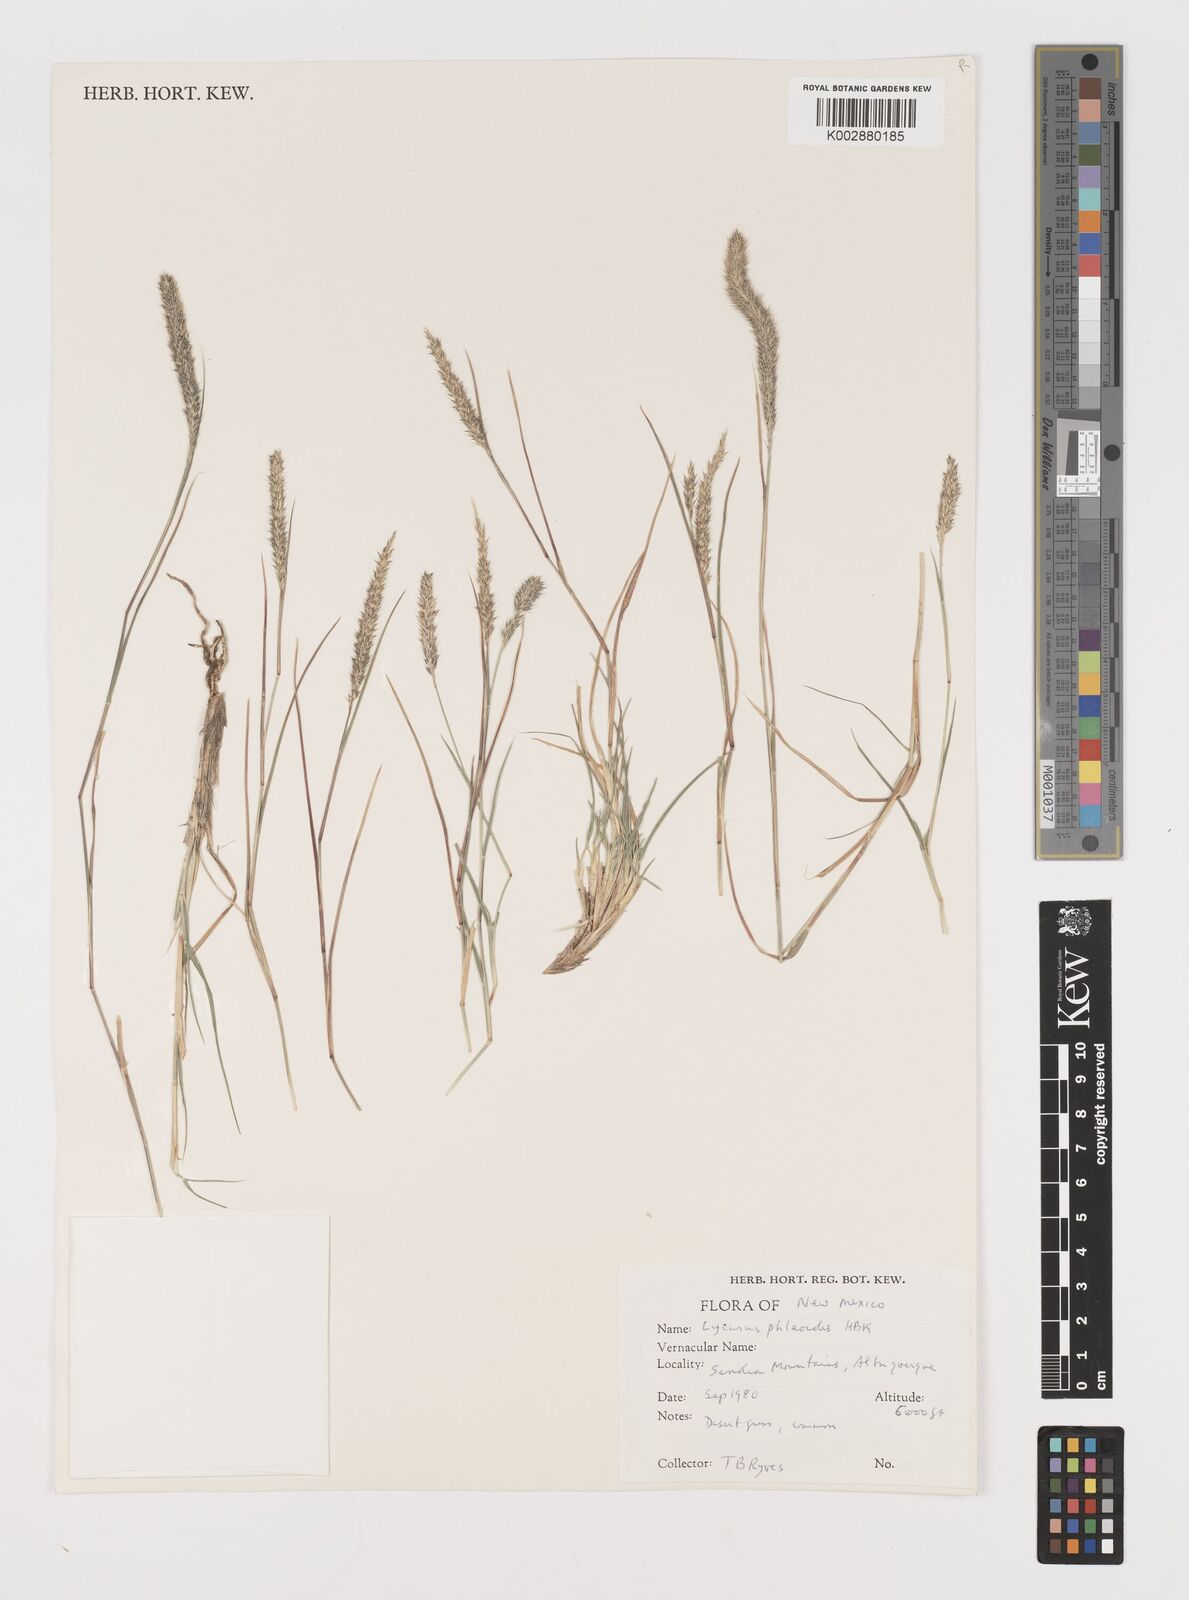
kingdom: Plantae
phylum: Tracheophyta
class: Liliopsida
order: Poales
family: Poaceae
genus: Muhlenbergia
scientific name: Muhlenbergia alopecuroides
